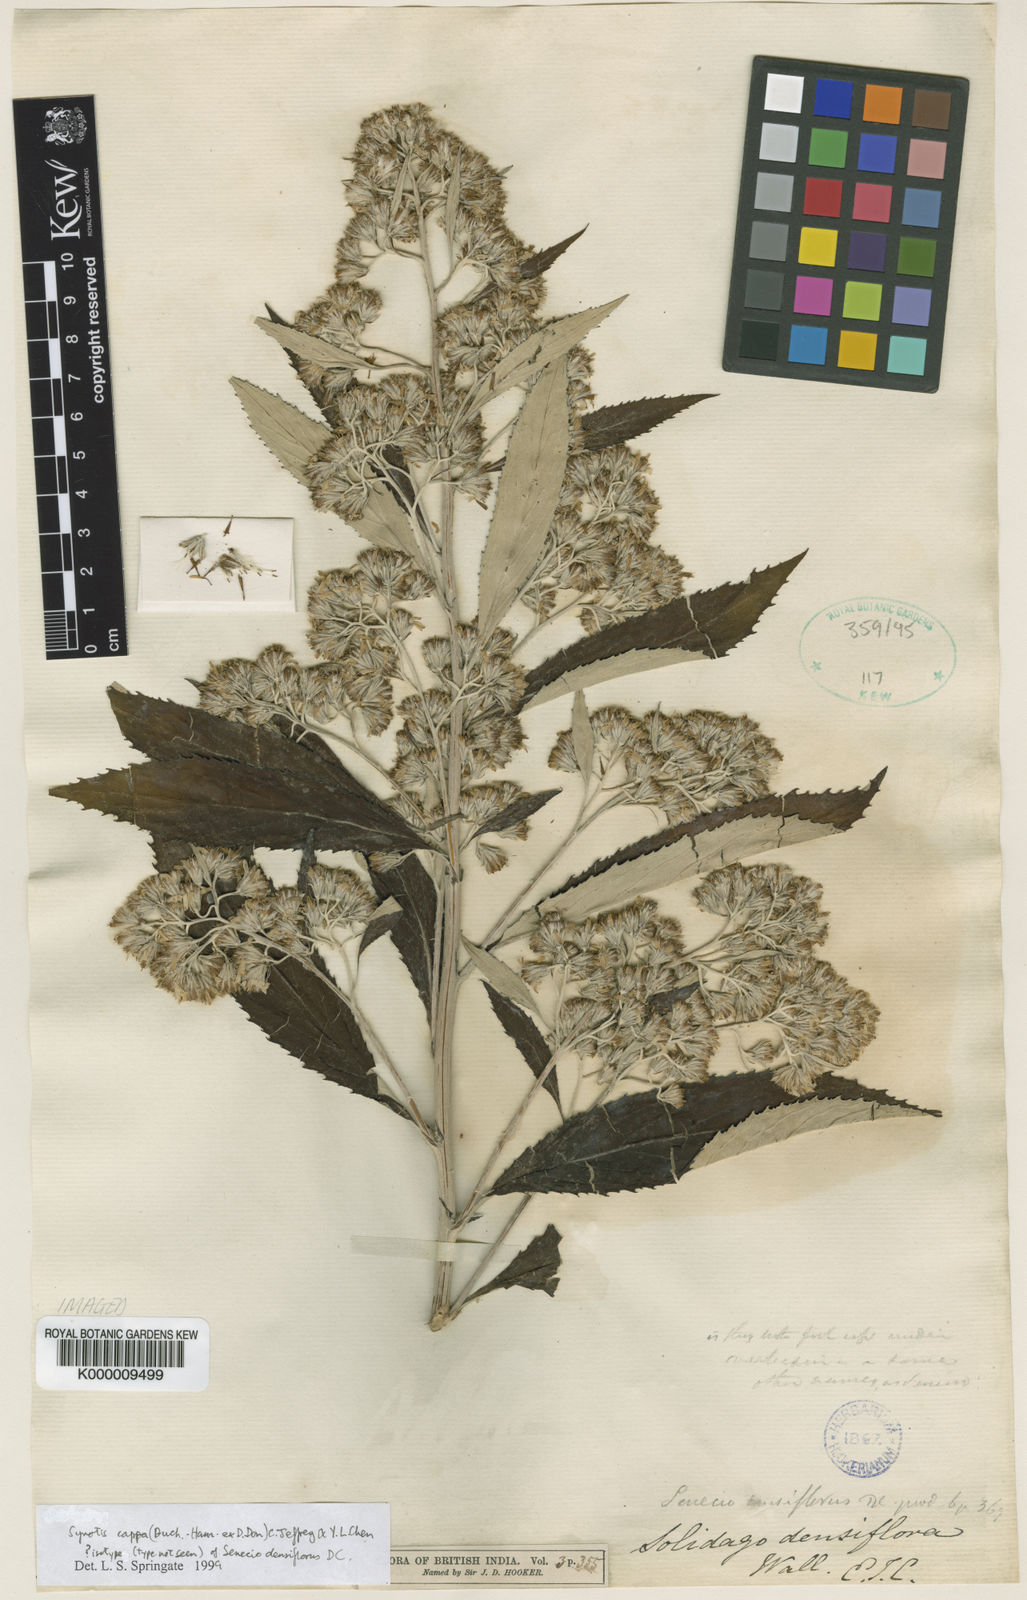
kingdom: Plantae
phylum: Tracheophyta
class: Magnoliopsida
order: Asterales
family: Asteraceae
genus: Synotis
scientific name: Synotis cappa
